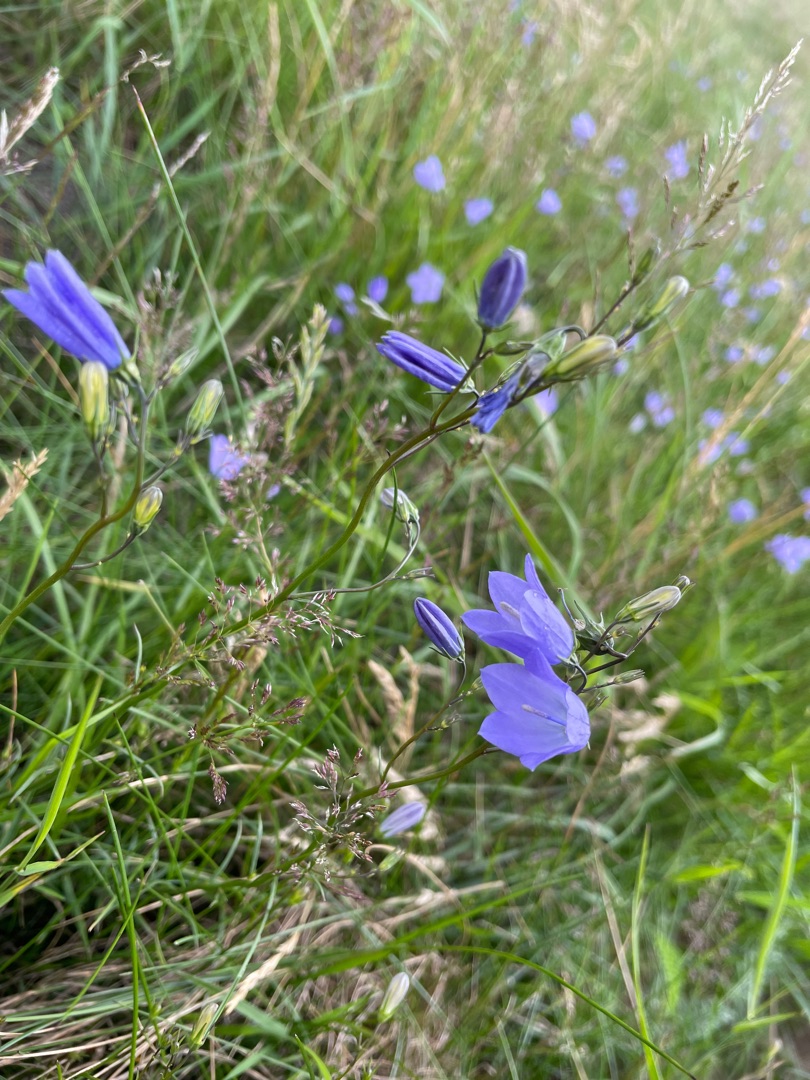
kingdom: Plantae
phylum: Tracheophyta
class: Magnoliopsida
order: Asterales
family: Campanulaceae
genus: Campanula
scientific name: Campanula rotundifolia
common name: Liden klokke
